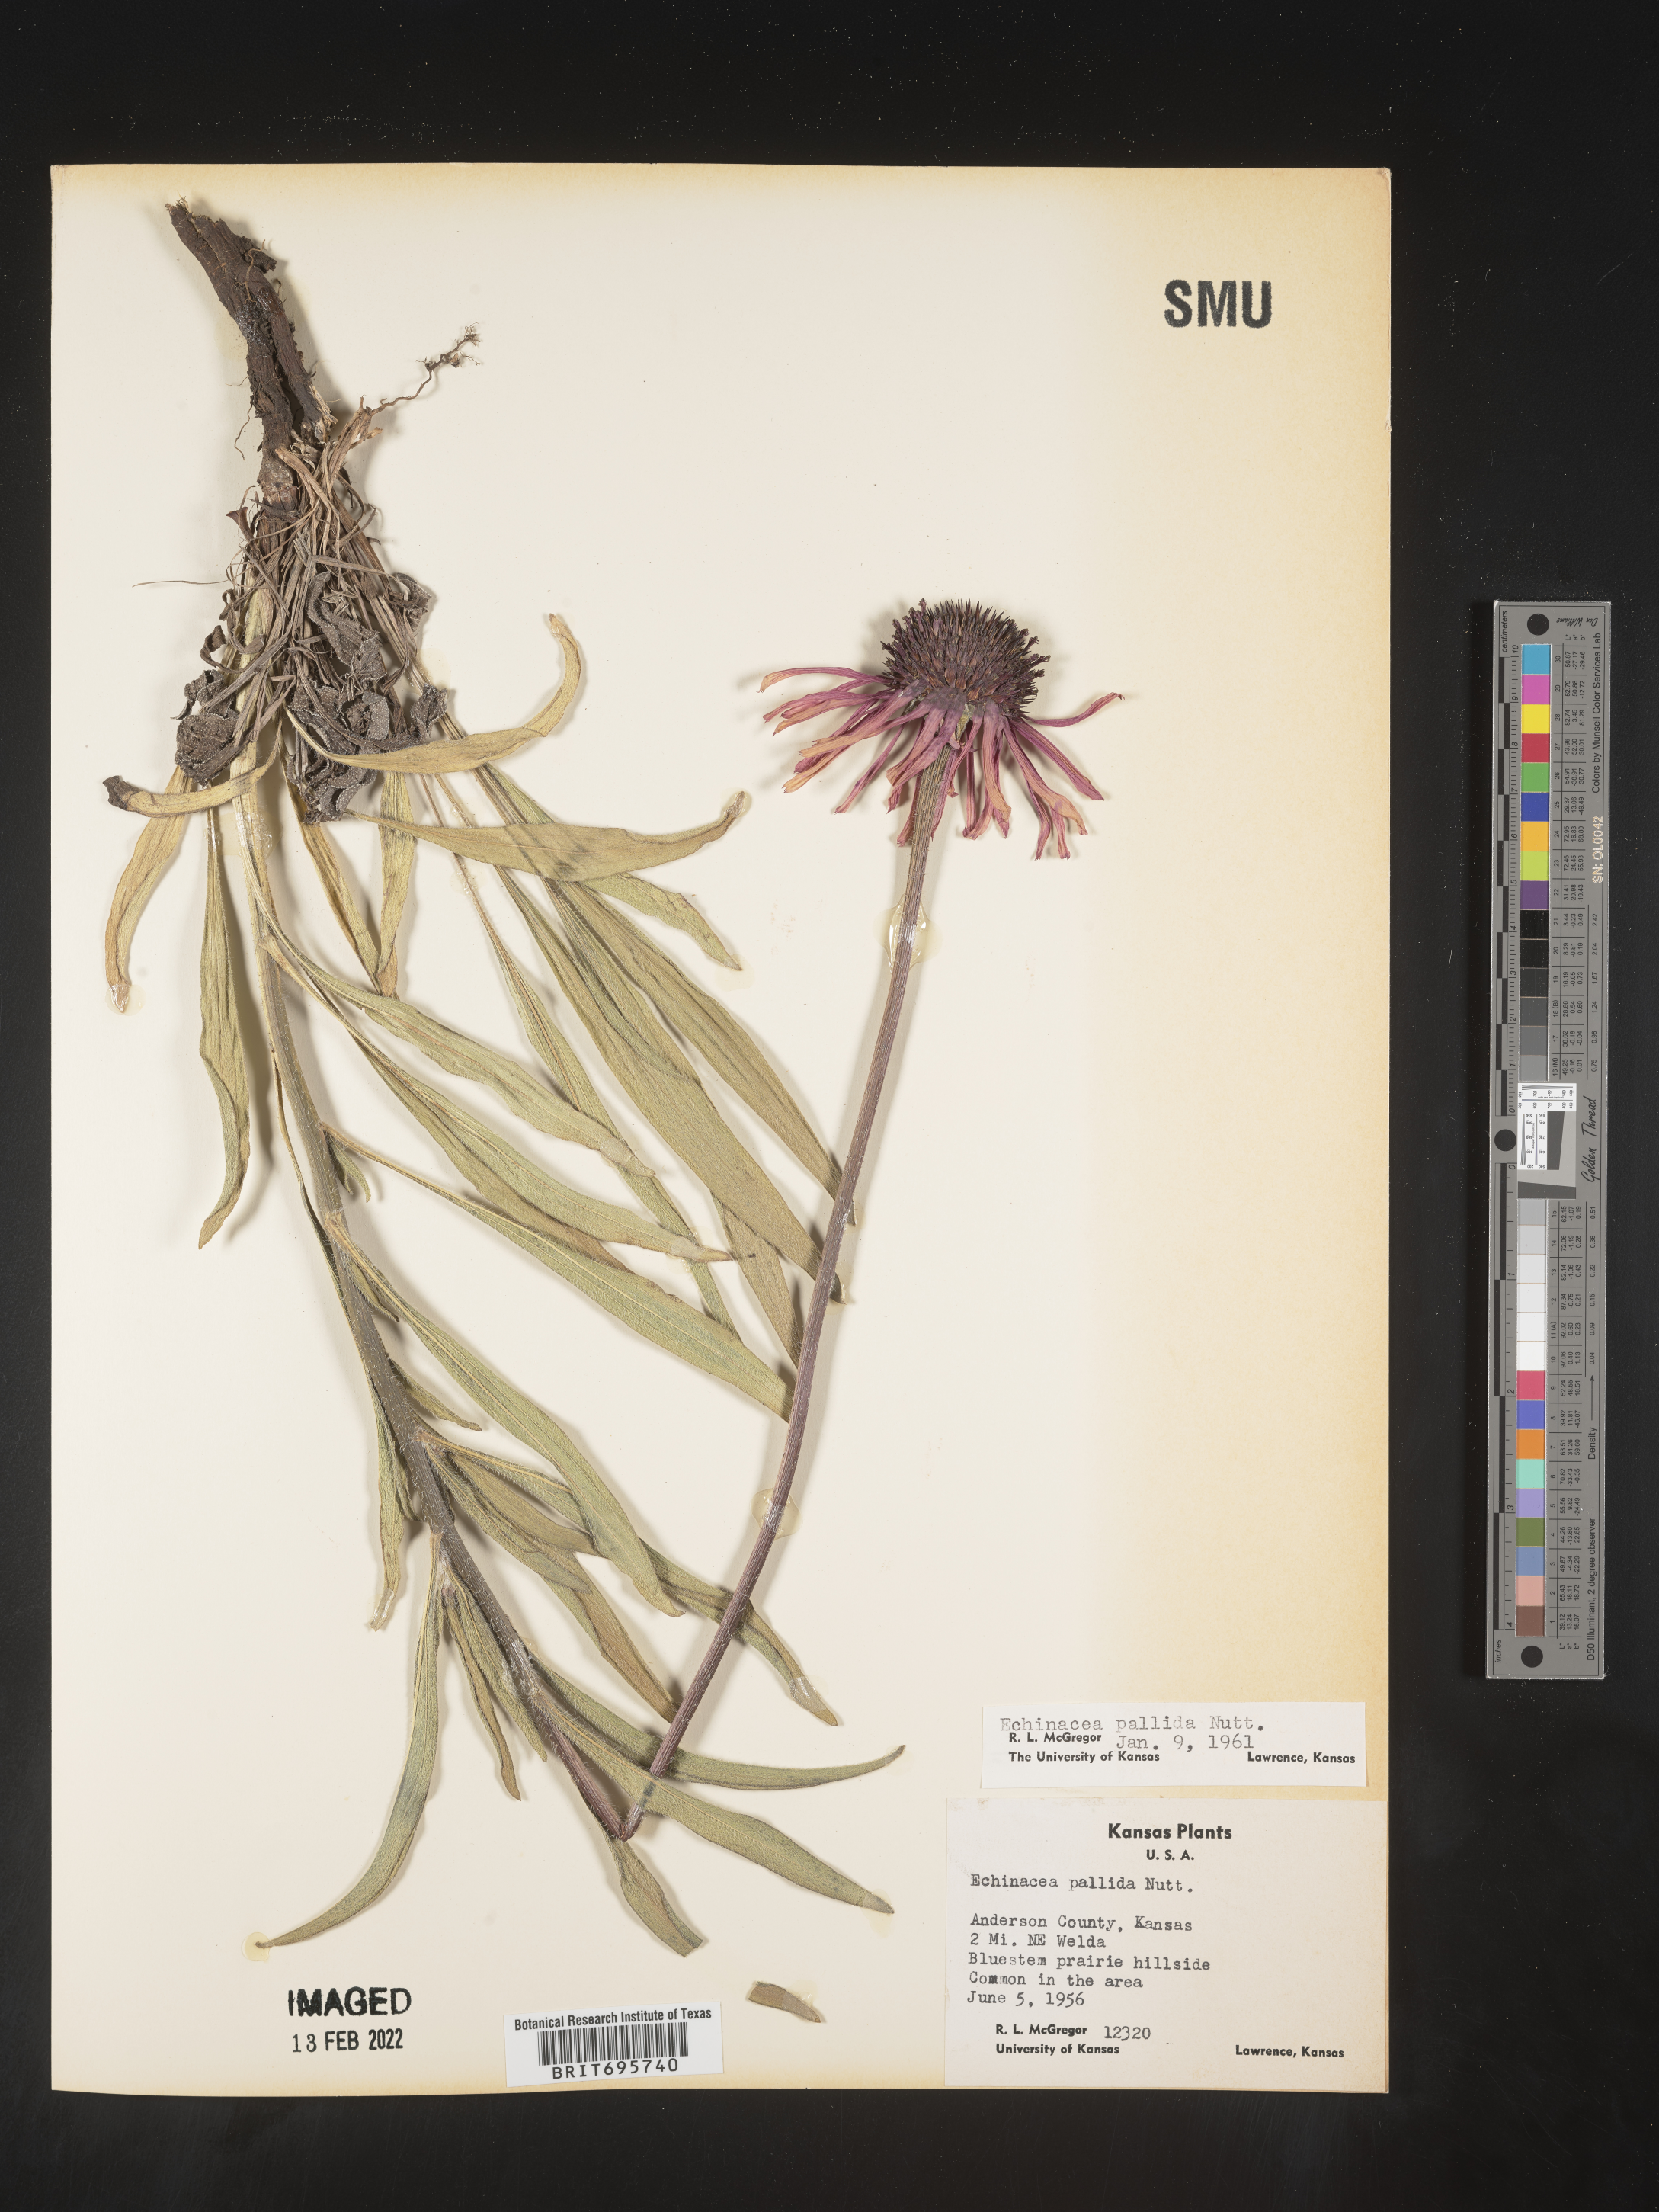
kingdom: Plantae
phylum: Tracheophyta
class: Magnoliopsida
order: Asterales
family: Asteraceae
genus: Echinacea
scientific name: Echinacea pallida
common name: Pale echinacea
